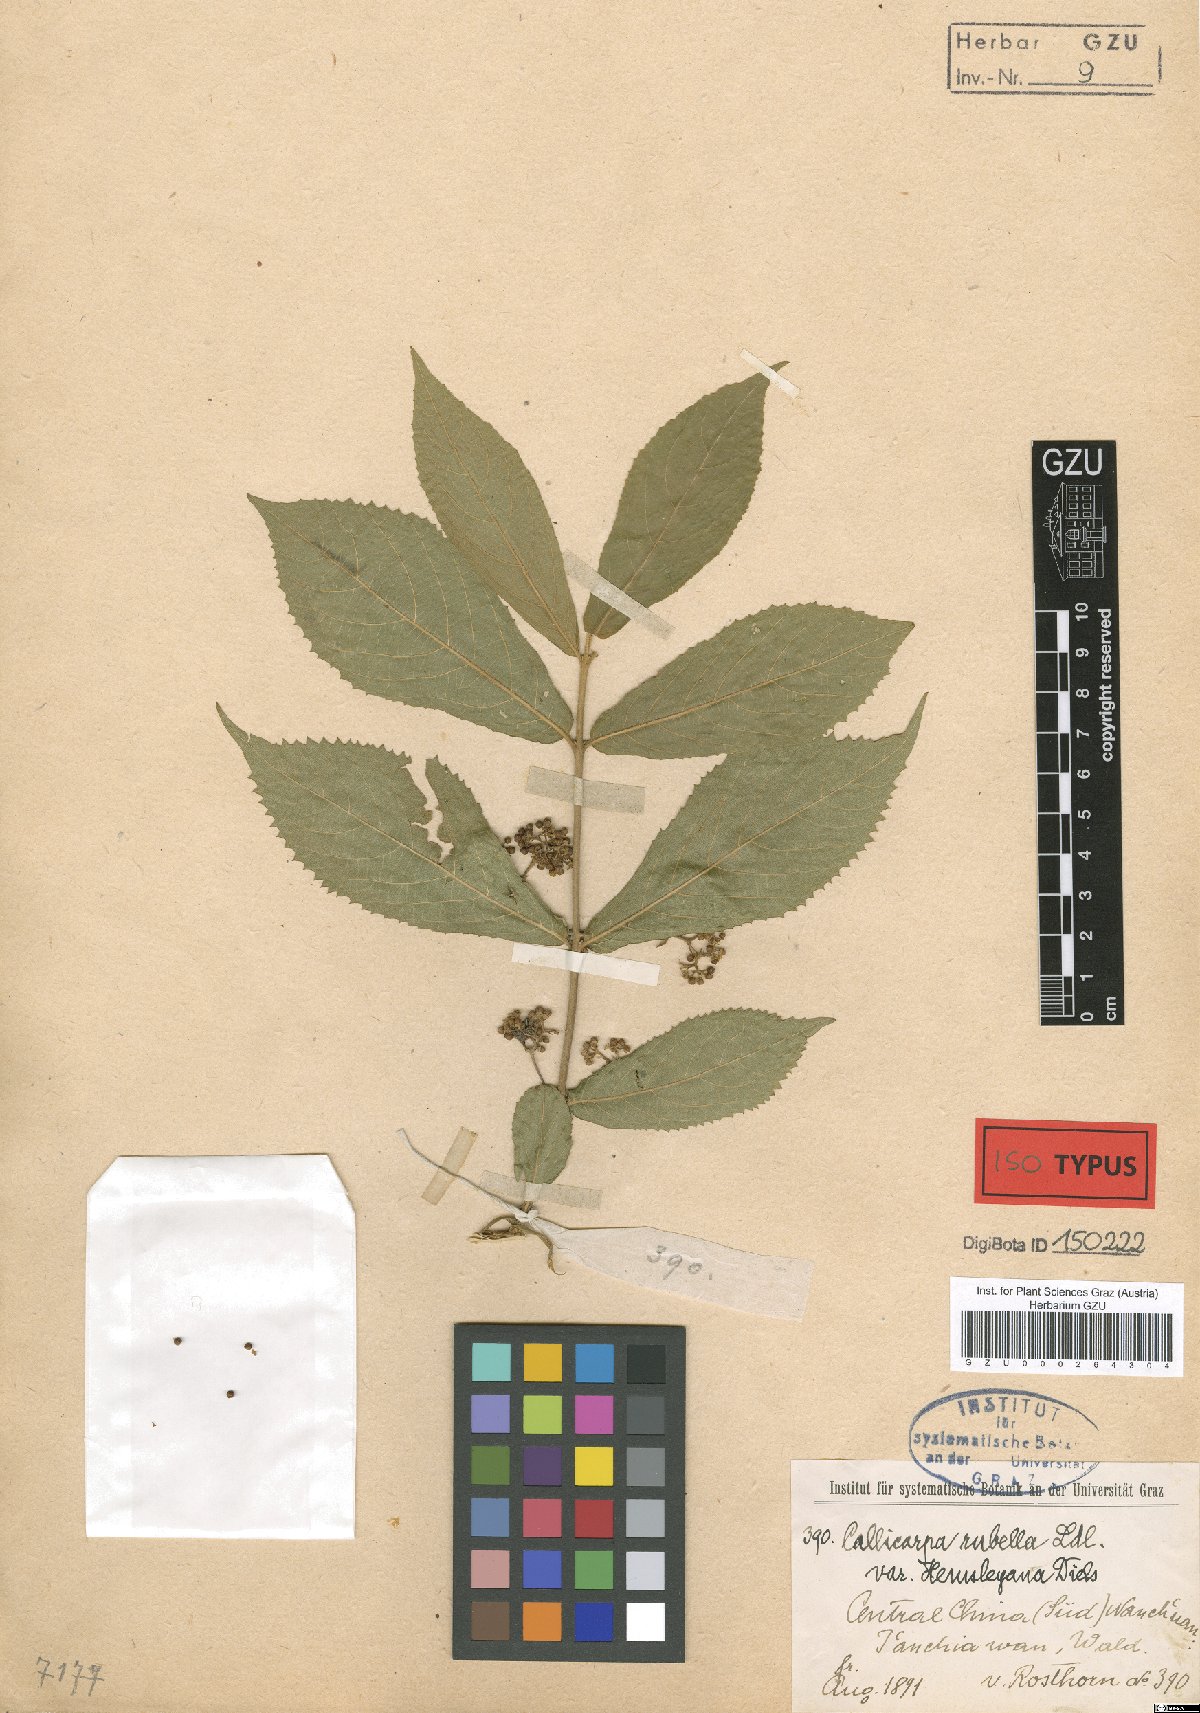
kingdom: Plantae
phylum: Tracheophyta
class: Magnoliopsida
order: Lamiales
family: Lamiaceae
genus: Callicarpa
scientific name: Callicarpa rubella
